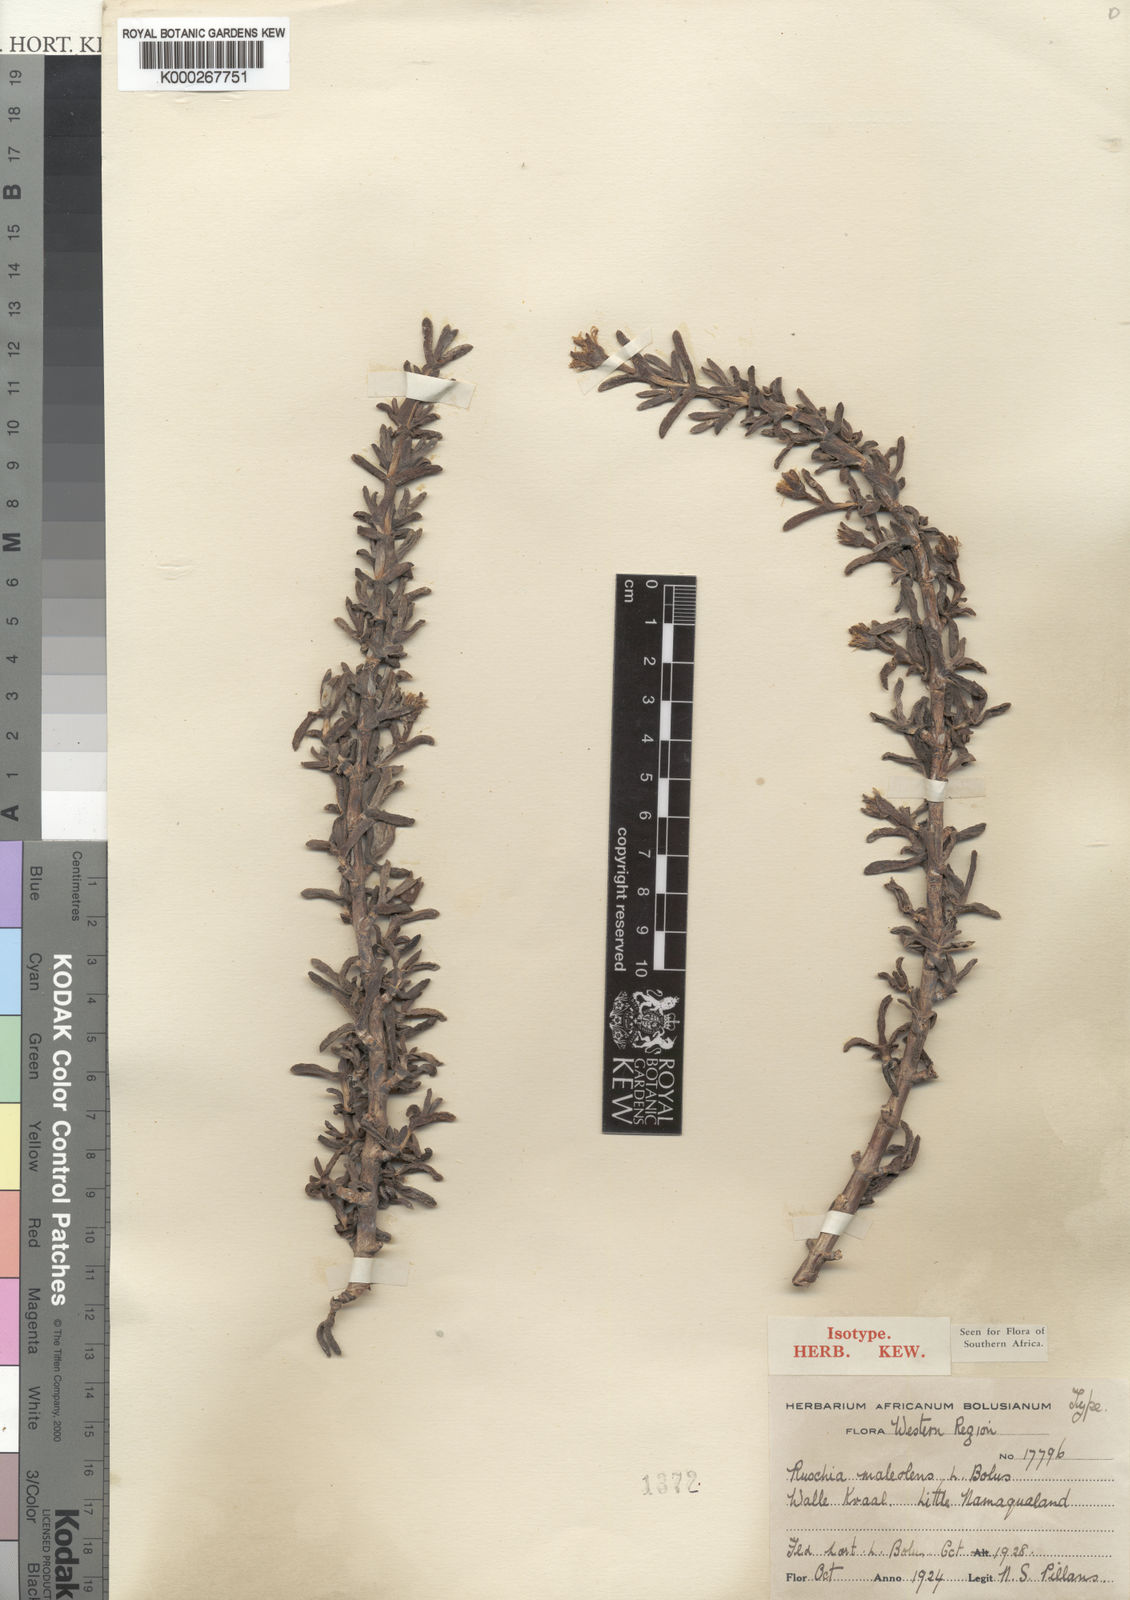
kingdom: Plantae
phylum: Tracheophyta
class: Magnoliopsida
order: Caryophyllales
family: Aizoaceae
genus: Antimima
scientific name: Antimima maleolens
